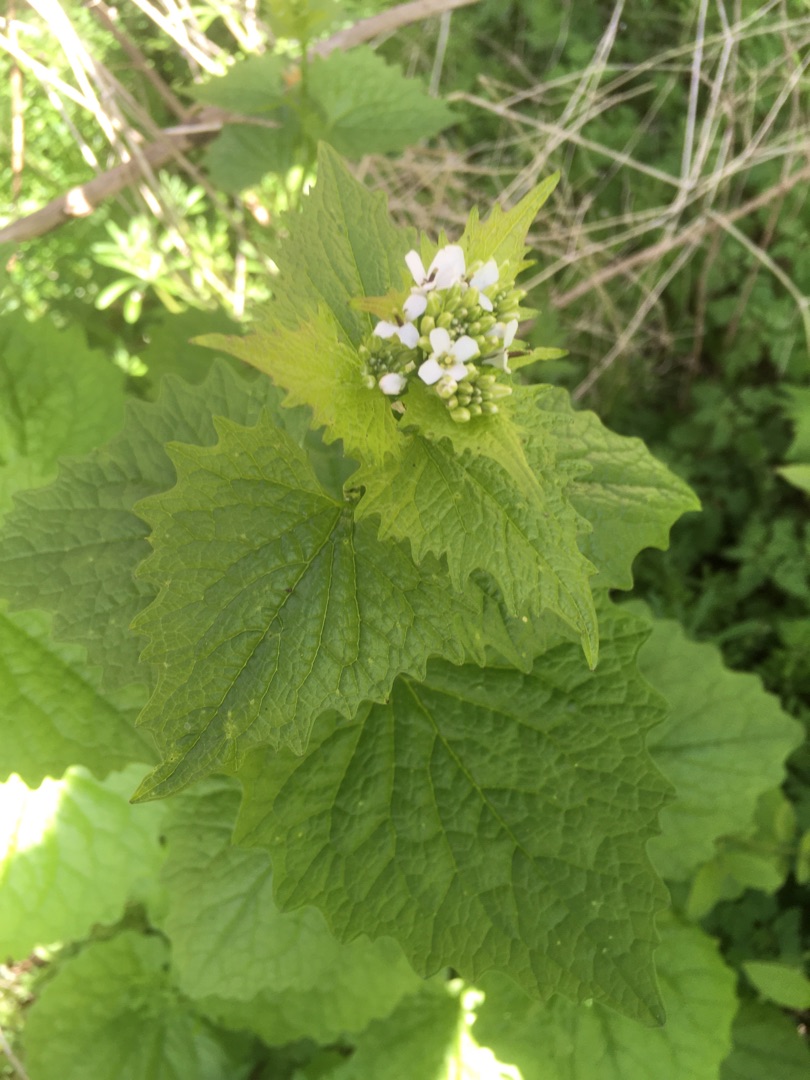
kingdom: Plantae
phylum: Tracheophyta
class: Magnoliopsida
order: Brassicales
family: Brassicaceae
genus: Alliaria
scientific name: Alliaria petiolata
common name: Løgkarse
